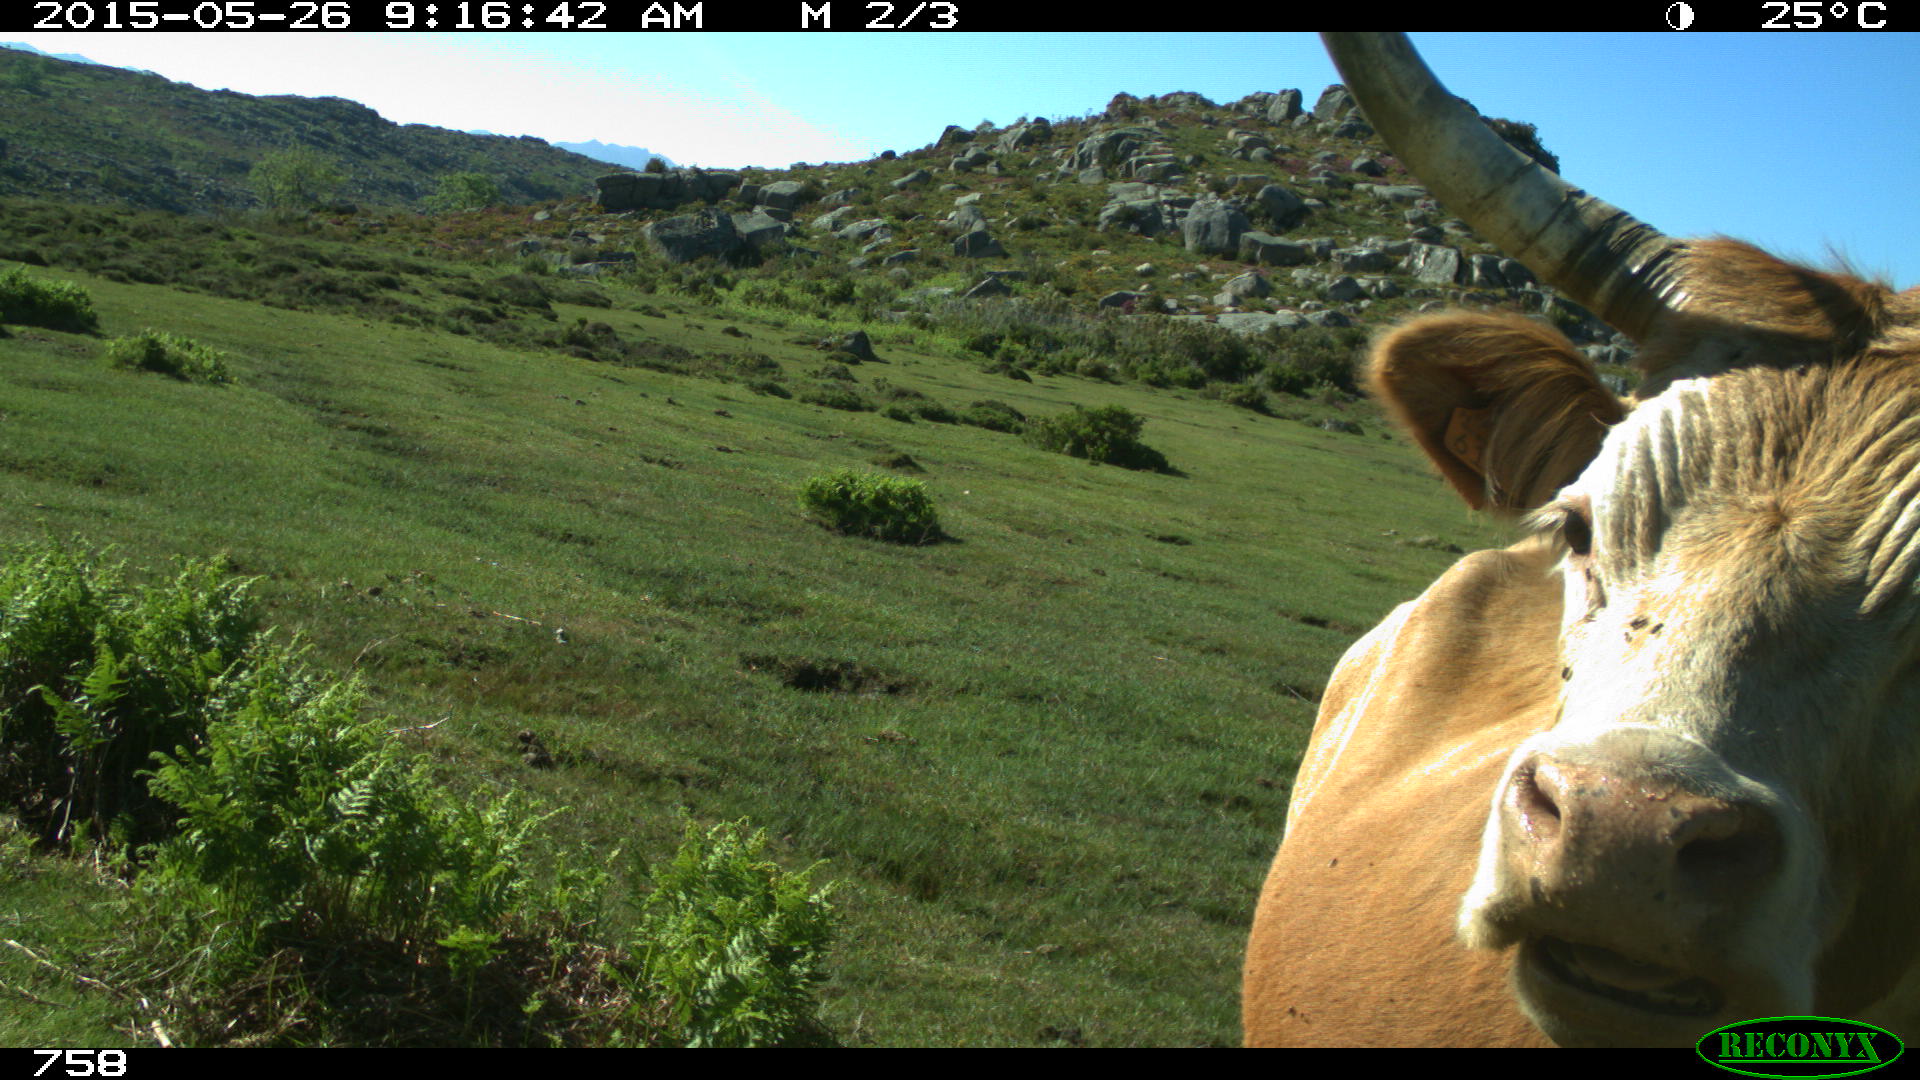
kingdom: Animalia
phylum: Chordata
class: Mammalia
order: Artiodactyla
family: Bovidae
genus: Bos
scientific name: Bos taurus
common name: Domesticated cattle
